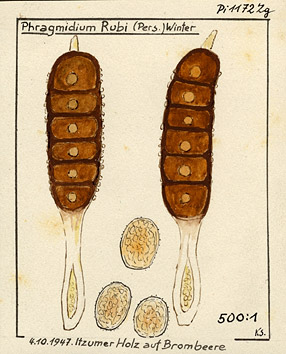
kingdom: Plantae
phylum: Tracheophyta
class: Magnoliopsida
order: Rosales
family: Rosaceae
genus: Rubus
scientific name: Rubus
